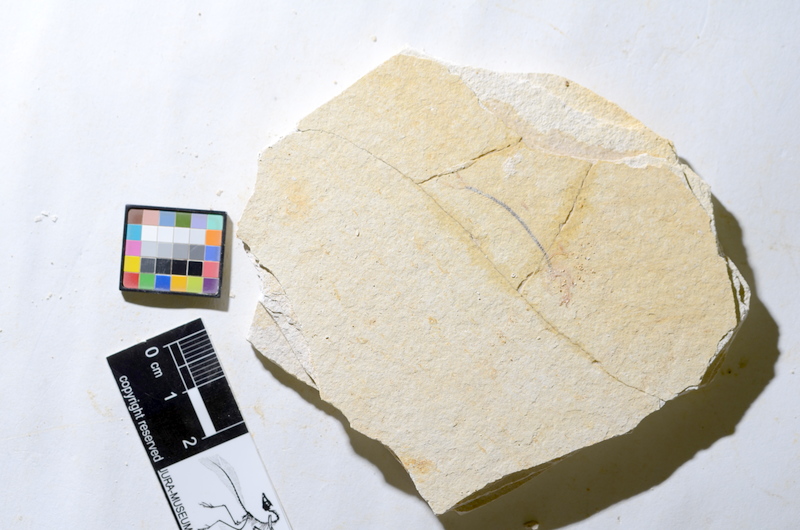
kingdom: Animalia
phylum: Chordata
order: Salmoniformes
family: Orthogonikleithridae
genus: Orthogonikleithrus
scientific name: Orthogonikleithrus hoelli
